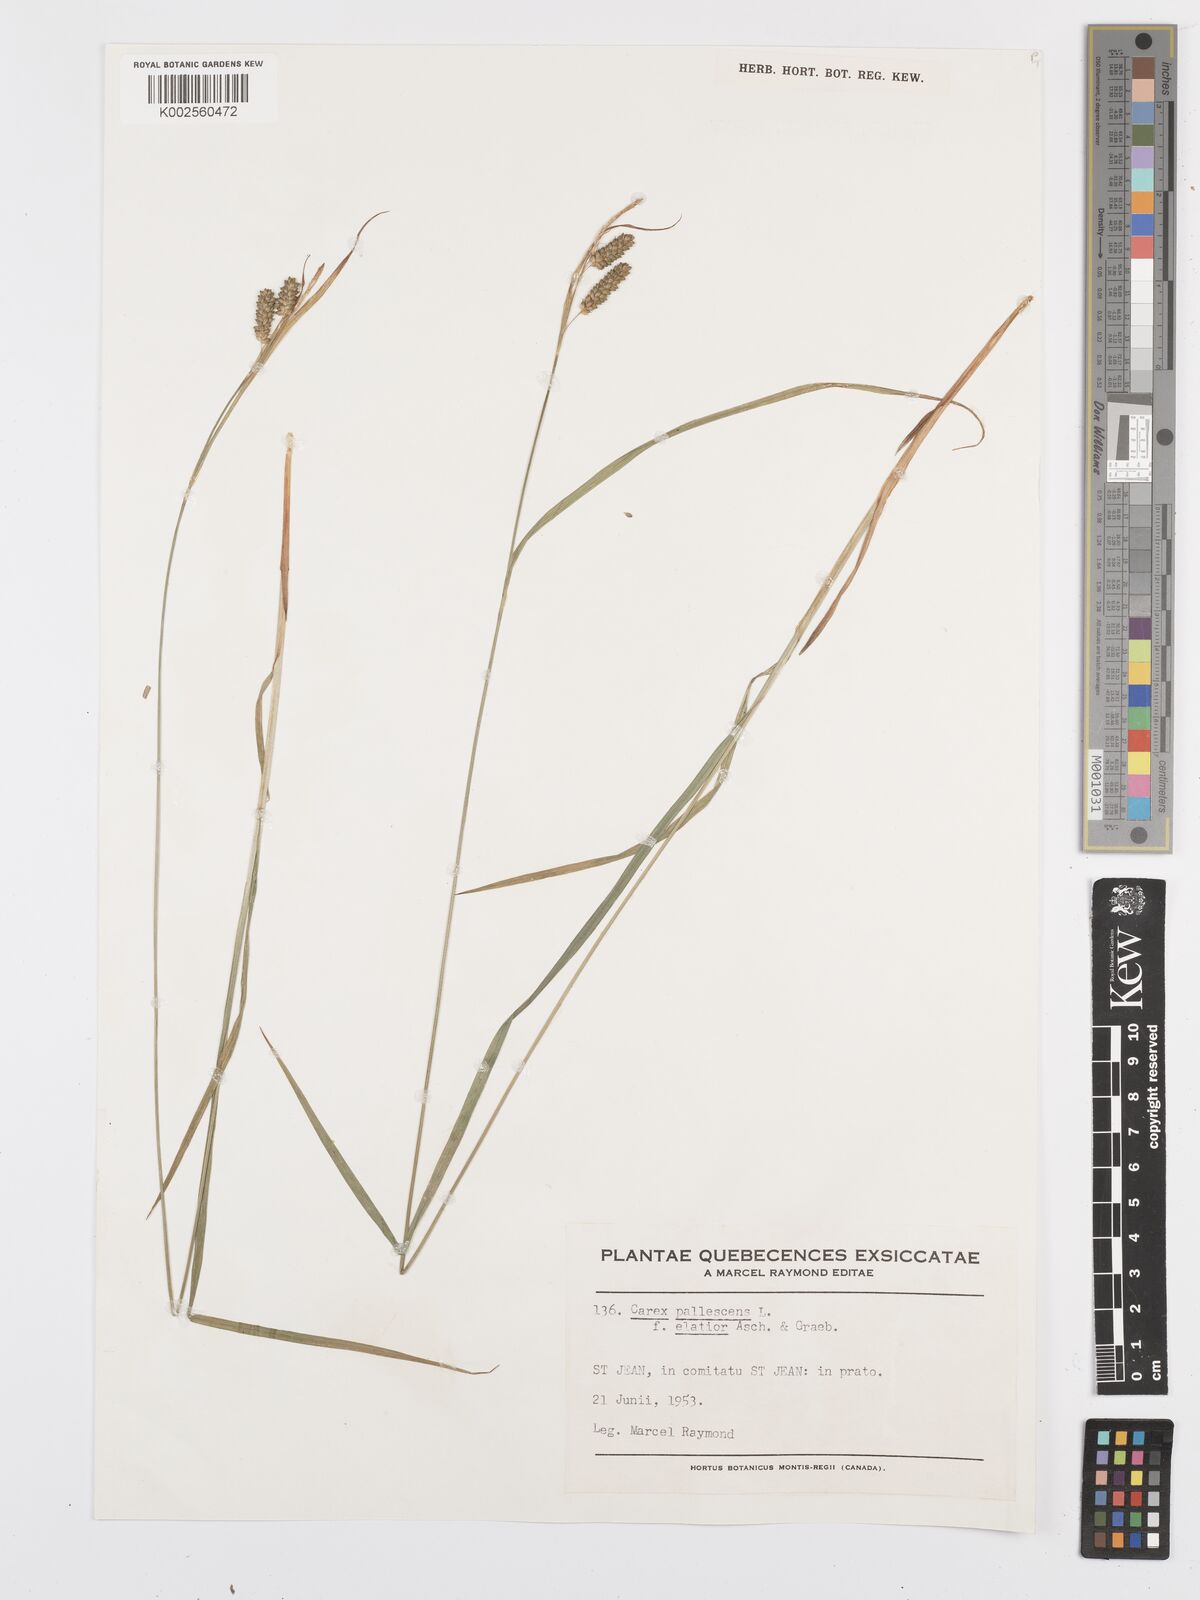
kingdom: Plantae
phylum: Tracheophyta
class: Liliopsida
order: Poales
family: Cyperaceae
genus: Carex
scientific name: Carex pallescens
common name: Pale sedge
